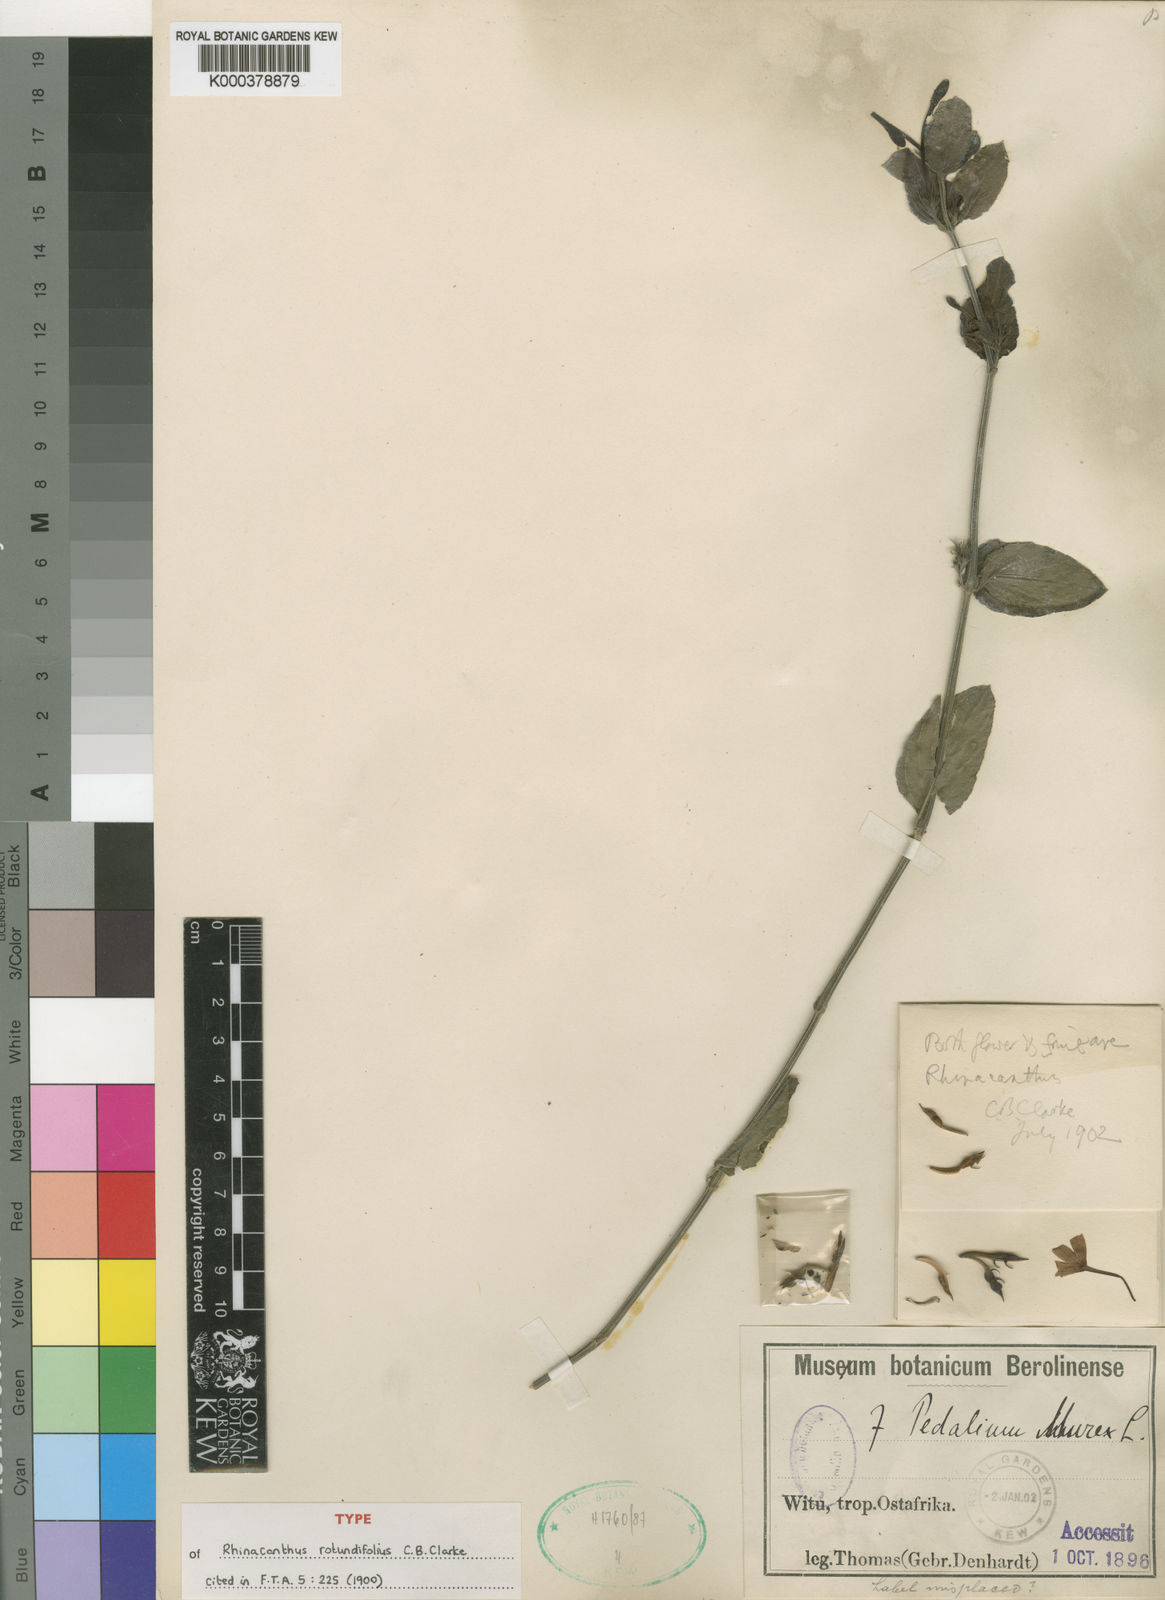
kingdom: Plantae
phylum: Tracheophyta
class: Magnoliopsida
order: Lamiales
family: Acanthaceae
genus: Rhinacanthus
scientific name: Rhinacanthus rotundifolius
